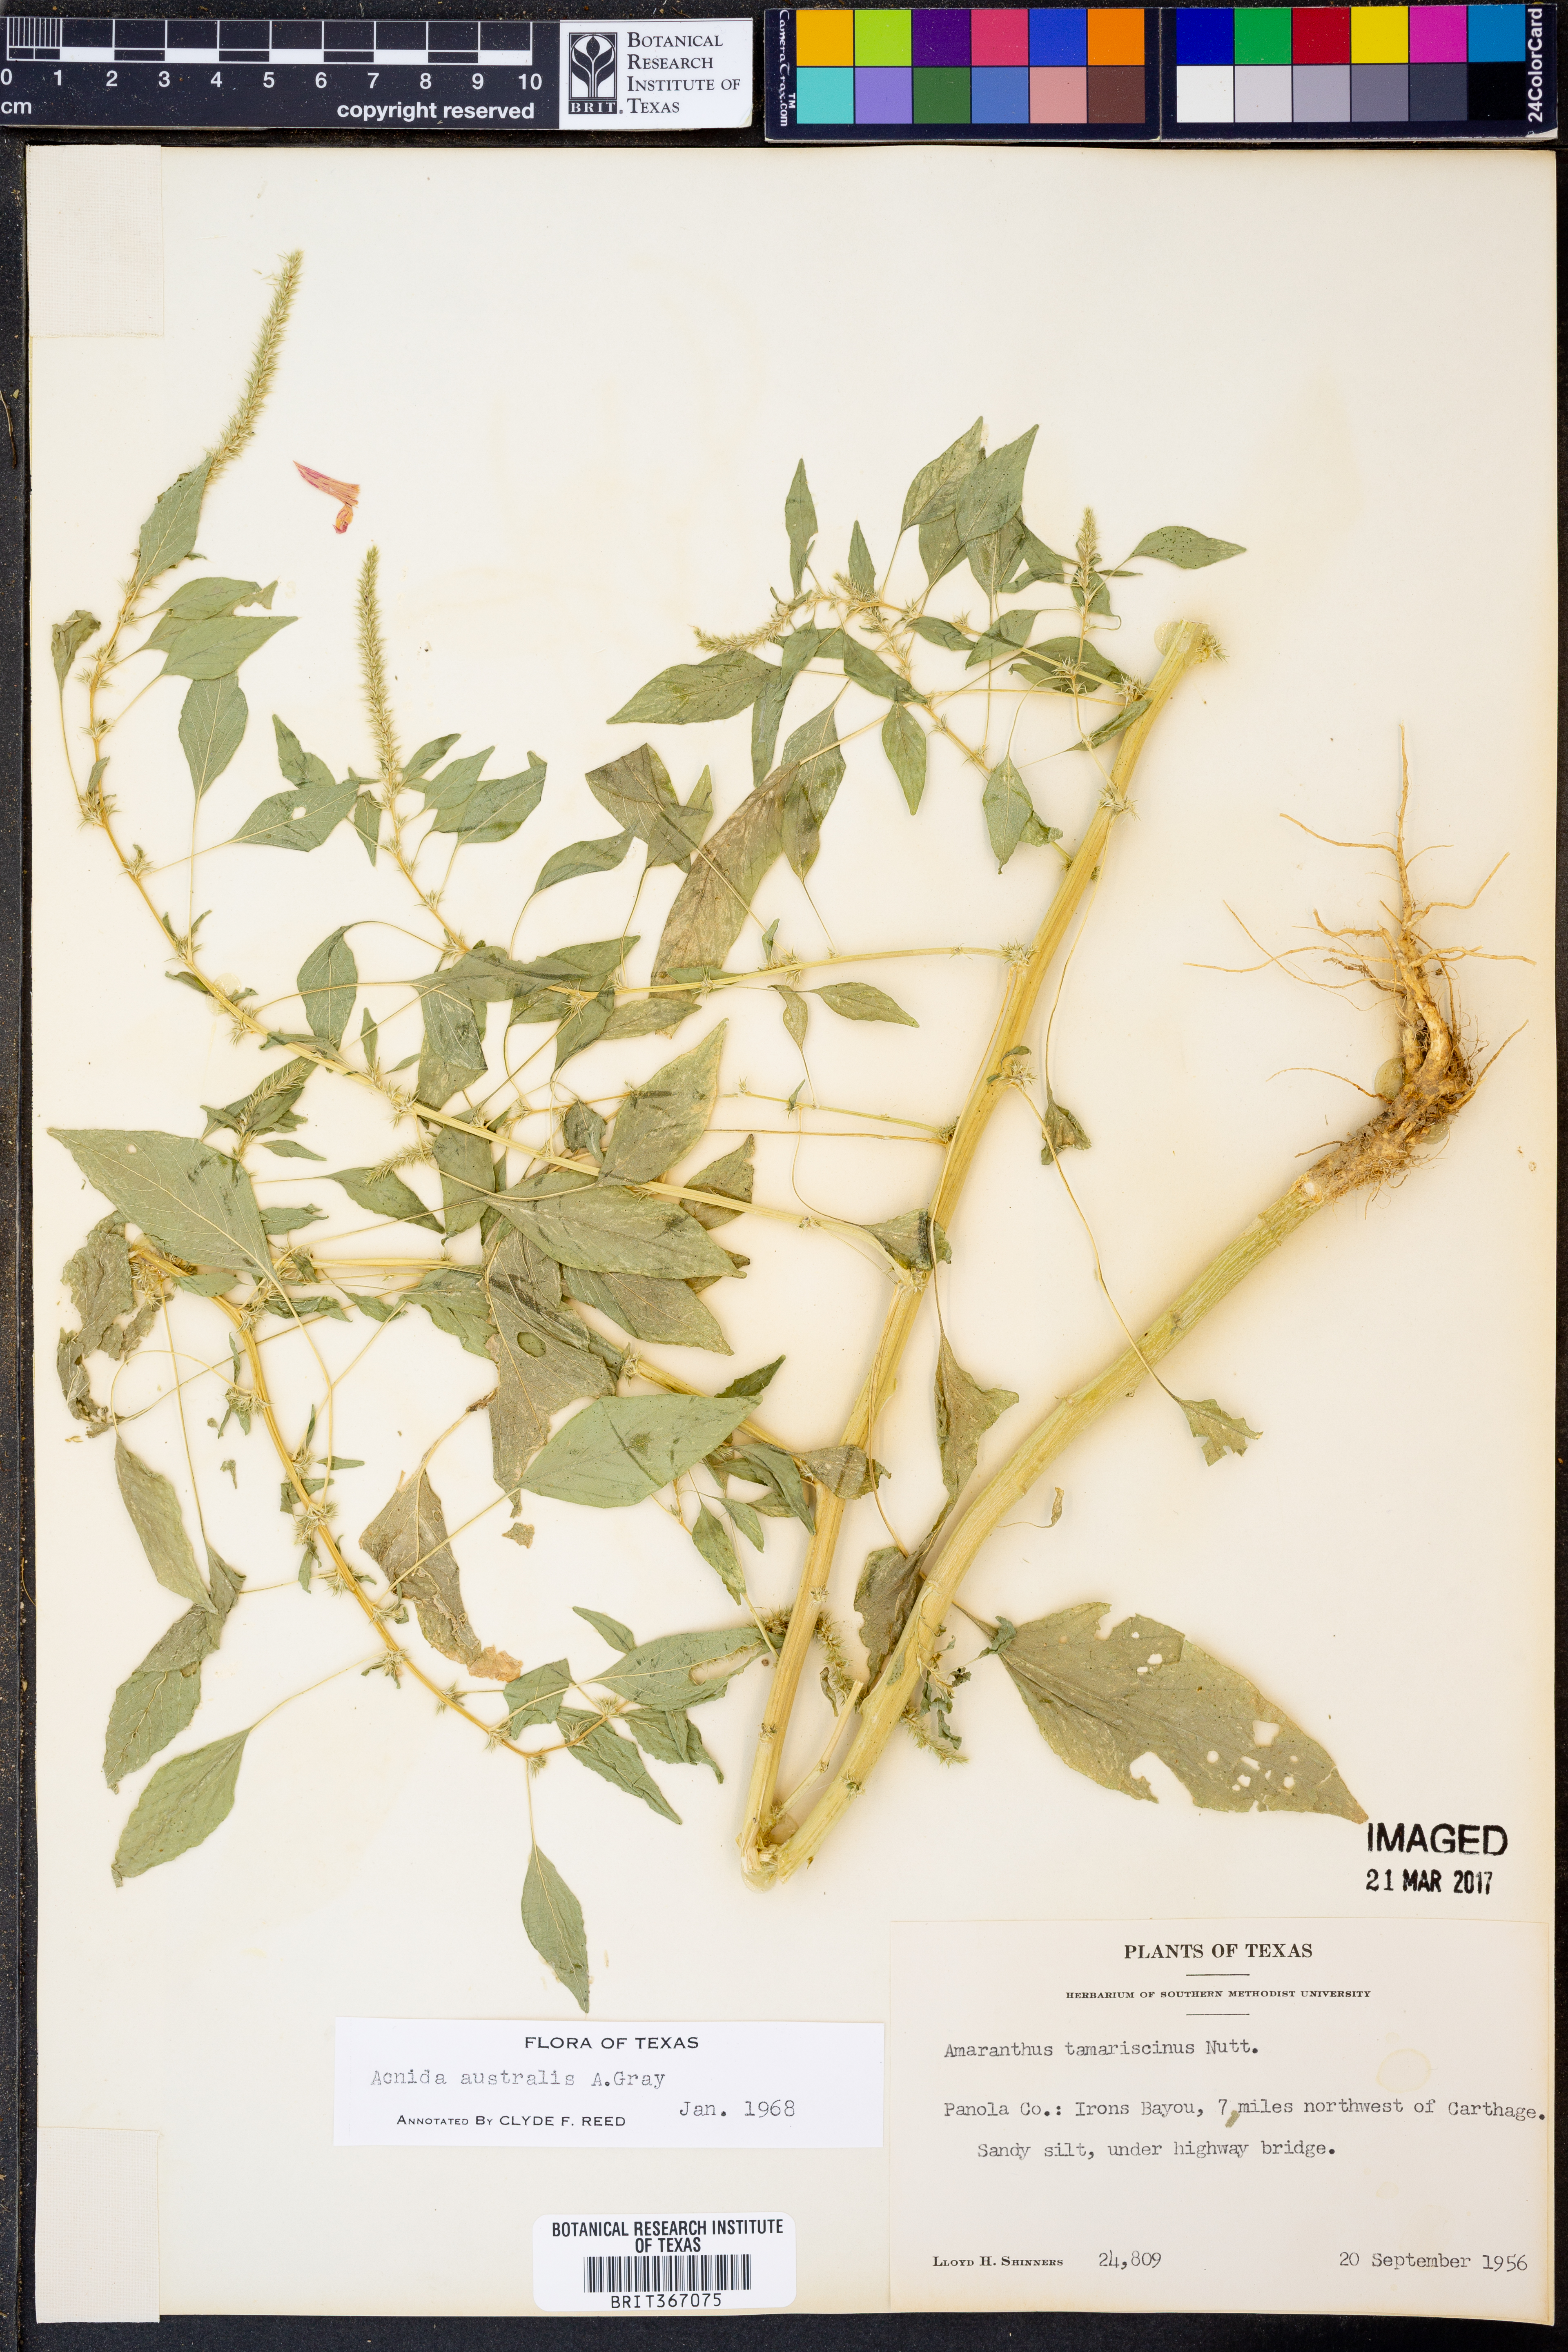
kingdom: Plantae
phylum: Tracheophyta
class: Magnoliopsida
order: Caryophyllales
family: Amaranthaceae
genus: Amaranthus
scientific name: Amaranthus australis
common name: Southern amaranth
